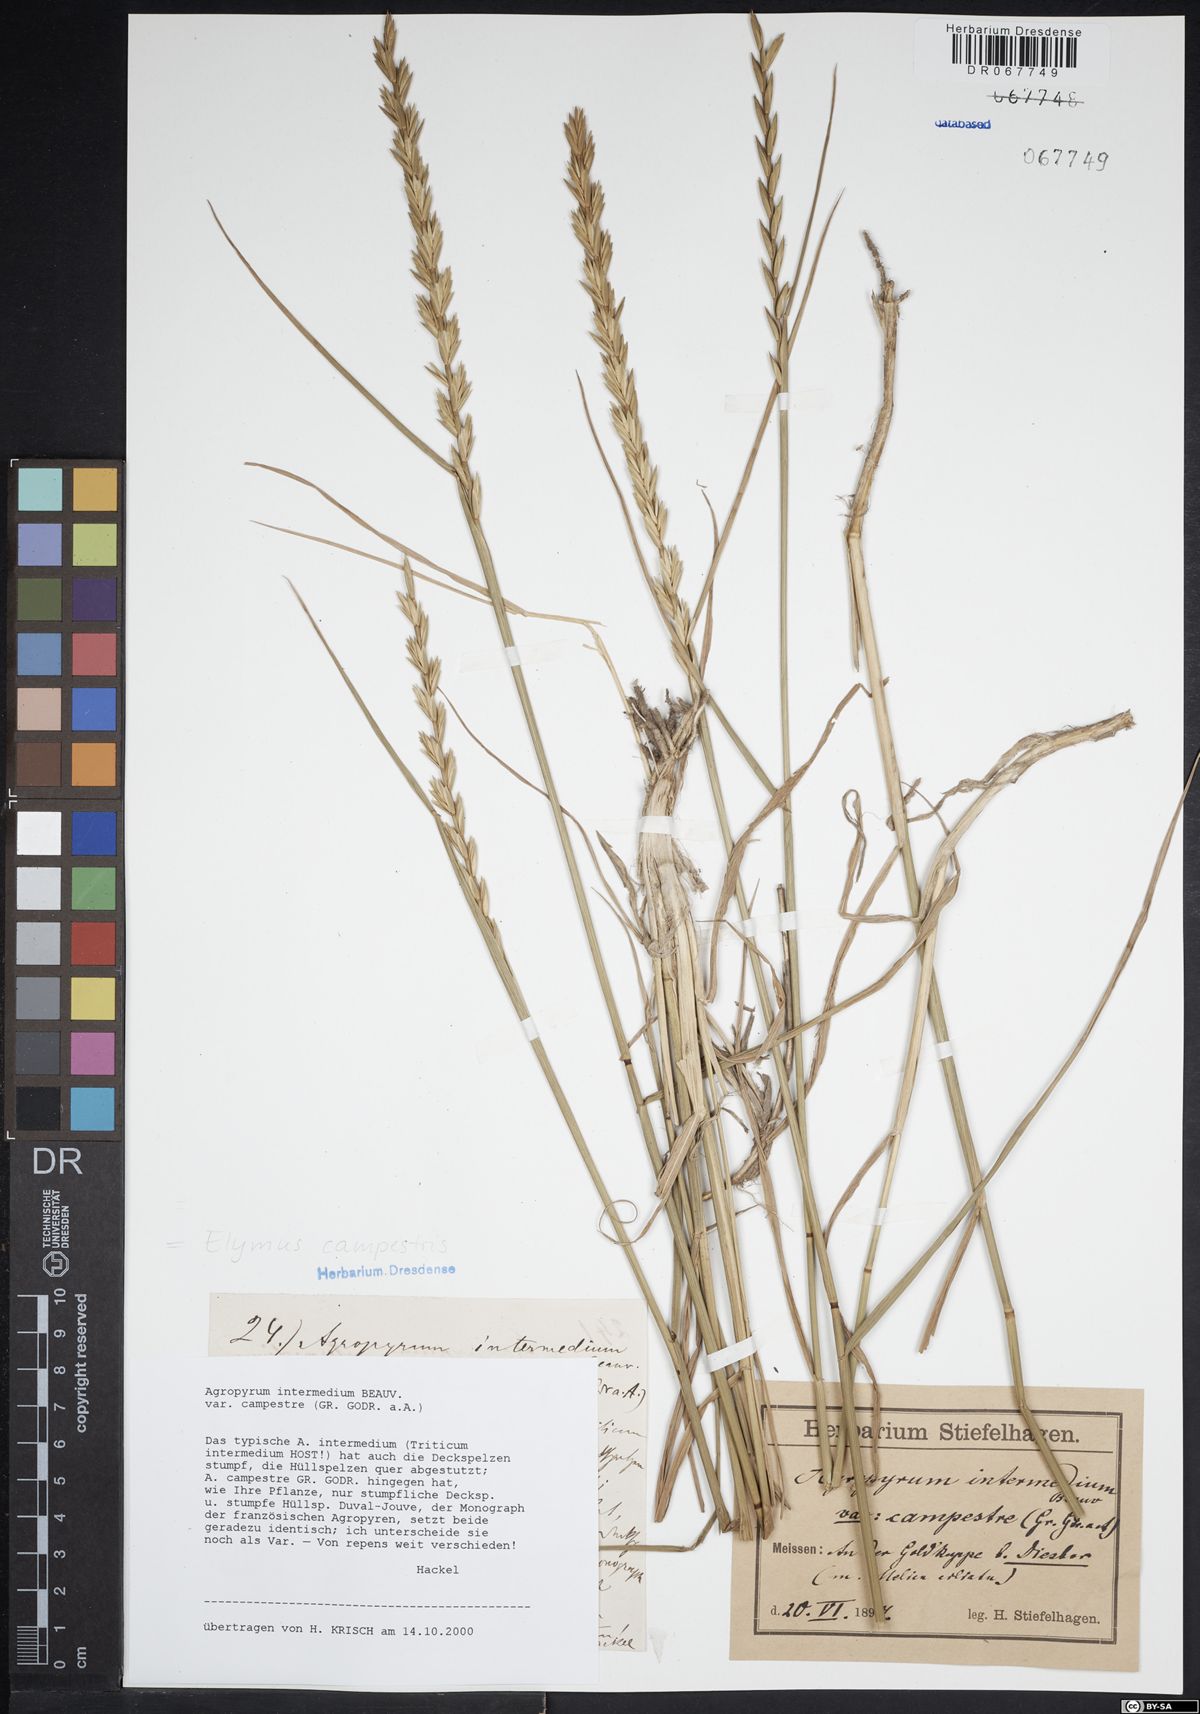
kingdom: Plantae
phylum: Tracheophyta
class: Liliopsida
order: Poales
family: Poaceae
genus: Elymus
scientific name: Elymus pungens
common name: Sea couch
